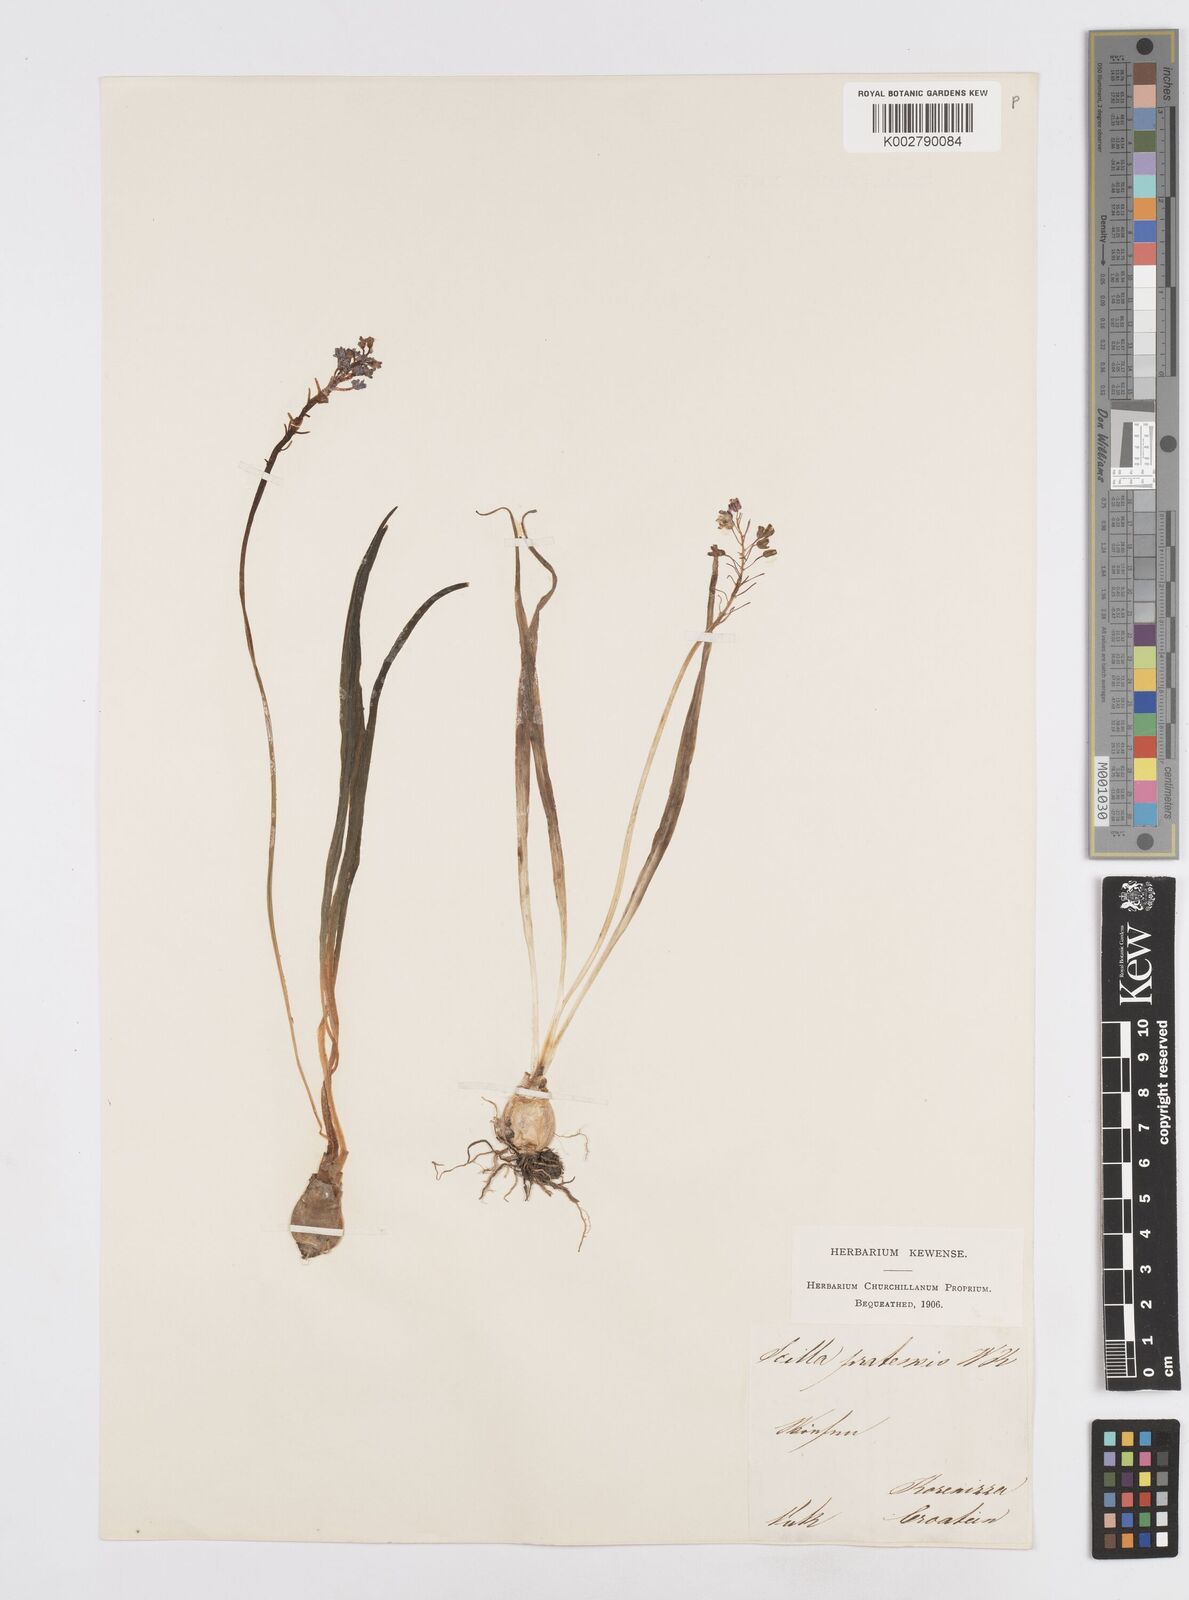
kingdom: Plantae
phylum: Tracheophyta
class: Liliopsida
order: Asparagales
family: Asparagaceae
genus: Scilla
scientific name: Scilla litardierei
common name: Amethyst meadow squill
